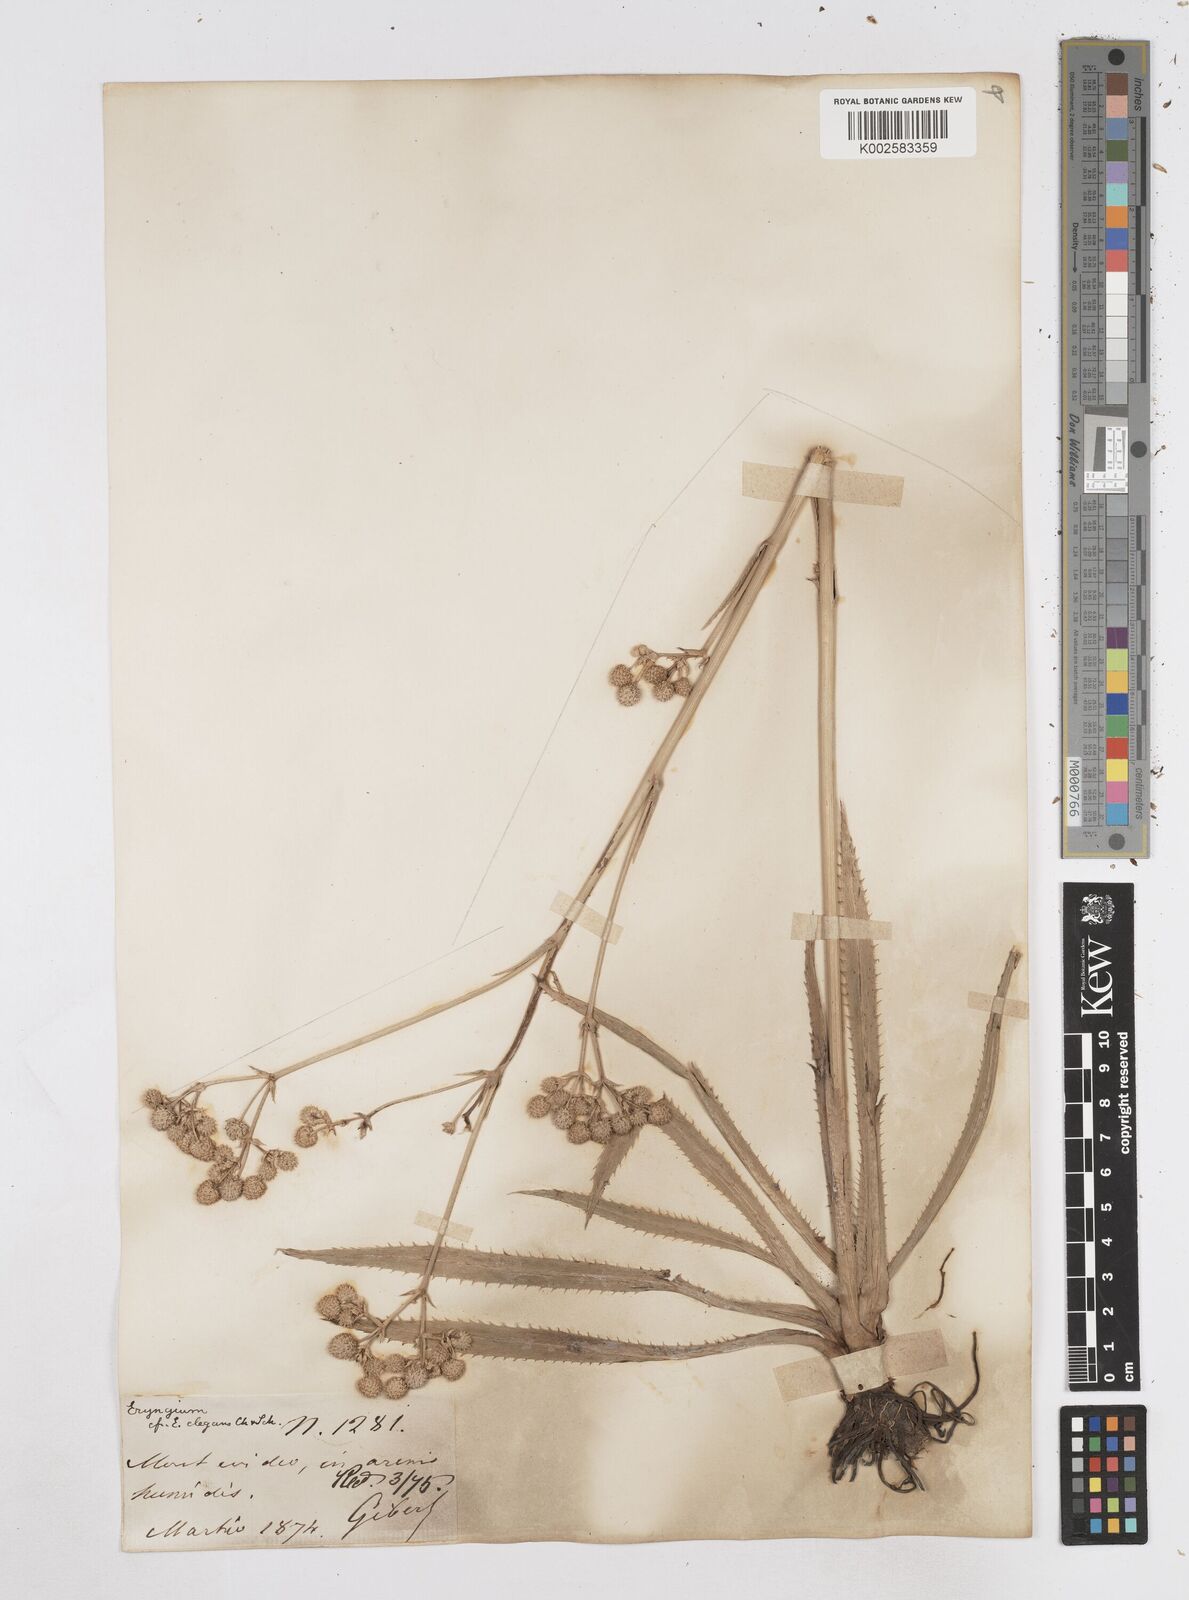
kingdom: Plantae
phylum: Tracheophyta
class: Magnoliopsida
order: Apiales
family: Apiaceae
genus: Eryngium
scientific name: Eryngium elegans
